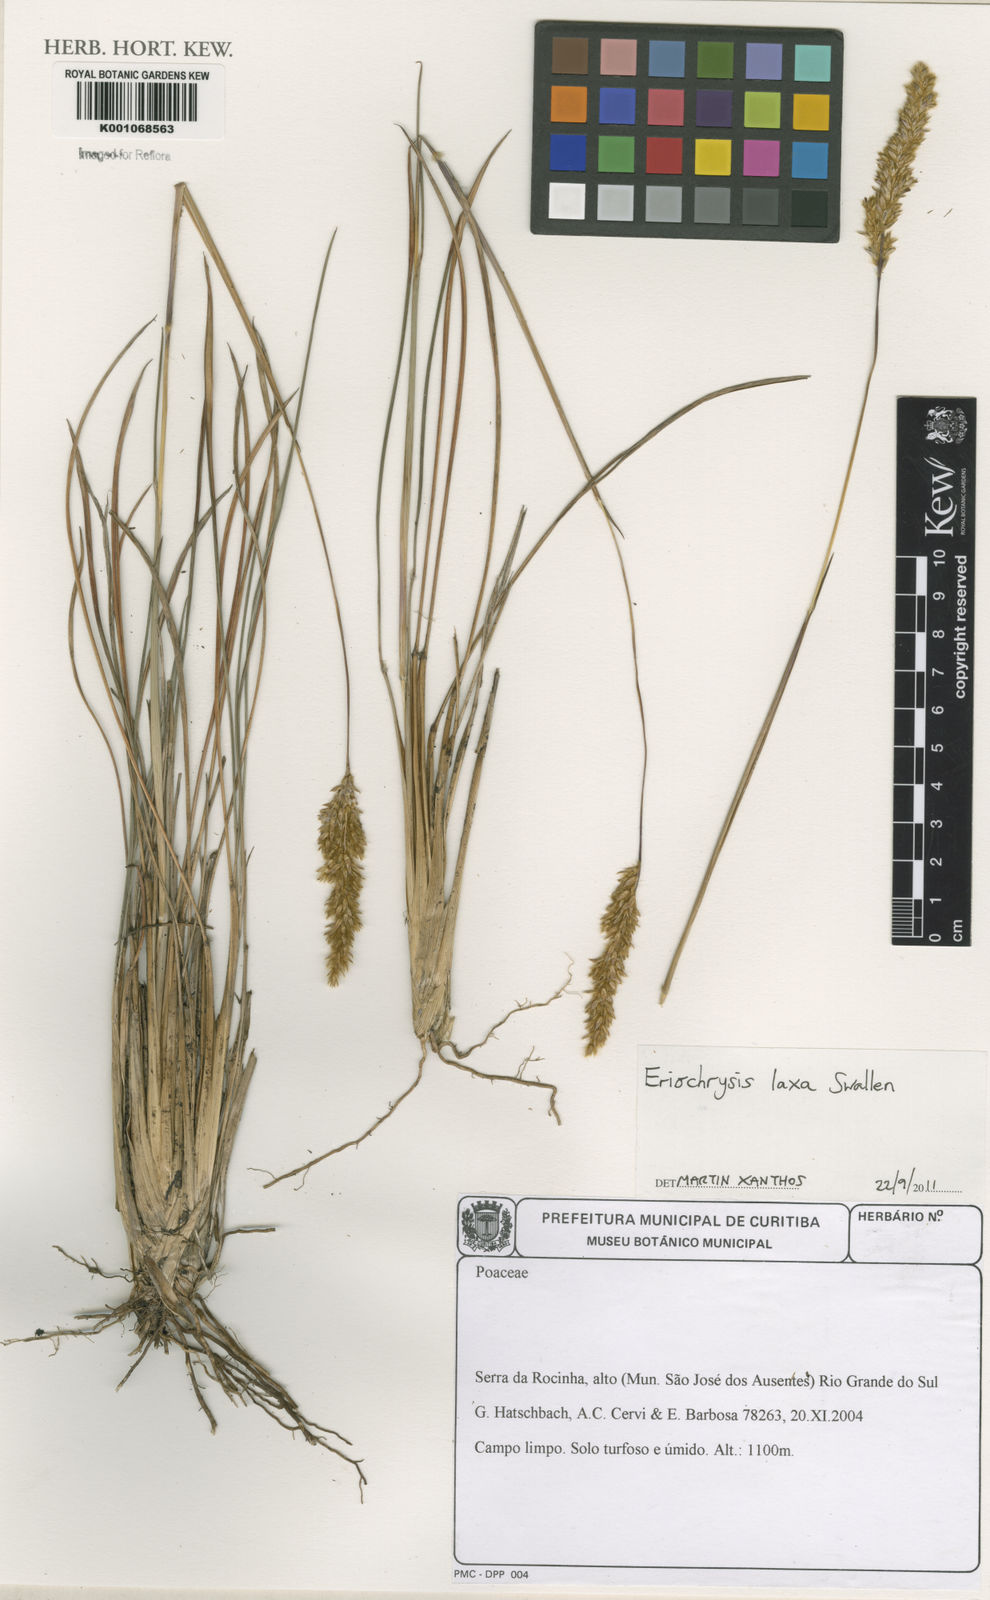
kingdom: Plantae
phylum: Tracheophyta
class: Liliopsida
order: Poales
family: Poaceae
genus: Eriochrysis
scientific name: Eriochrysis laxa
